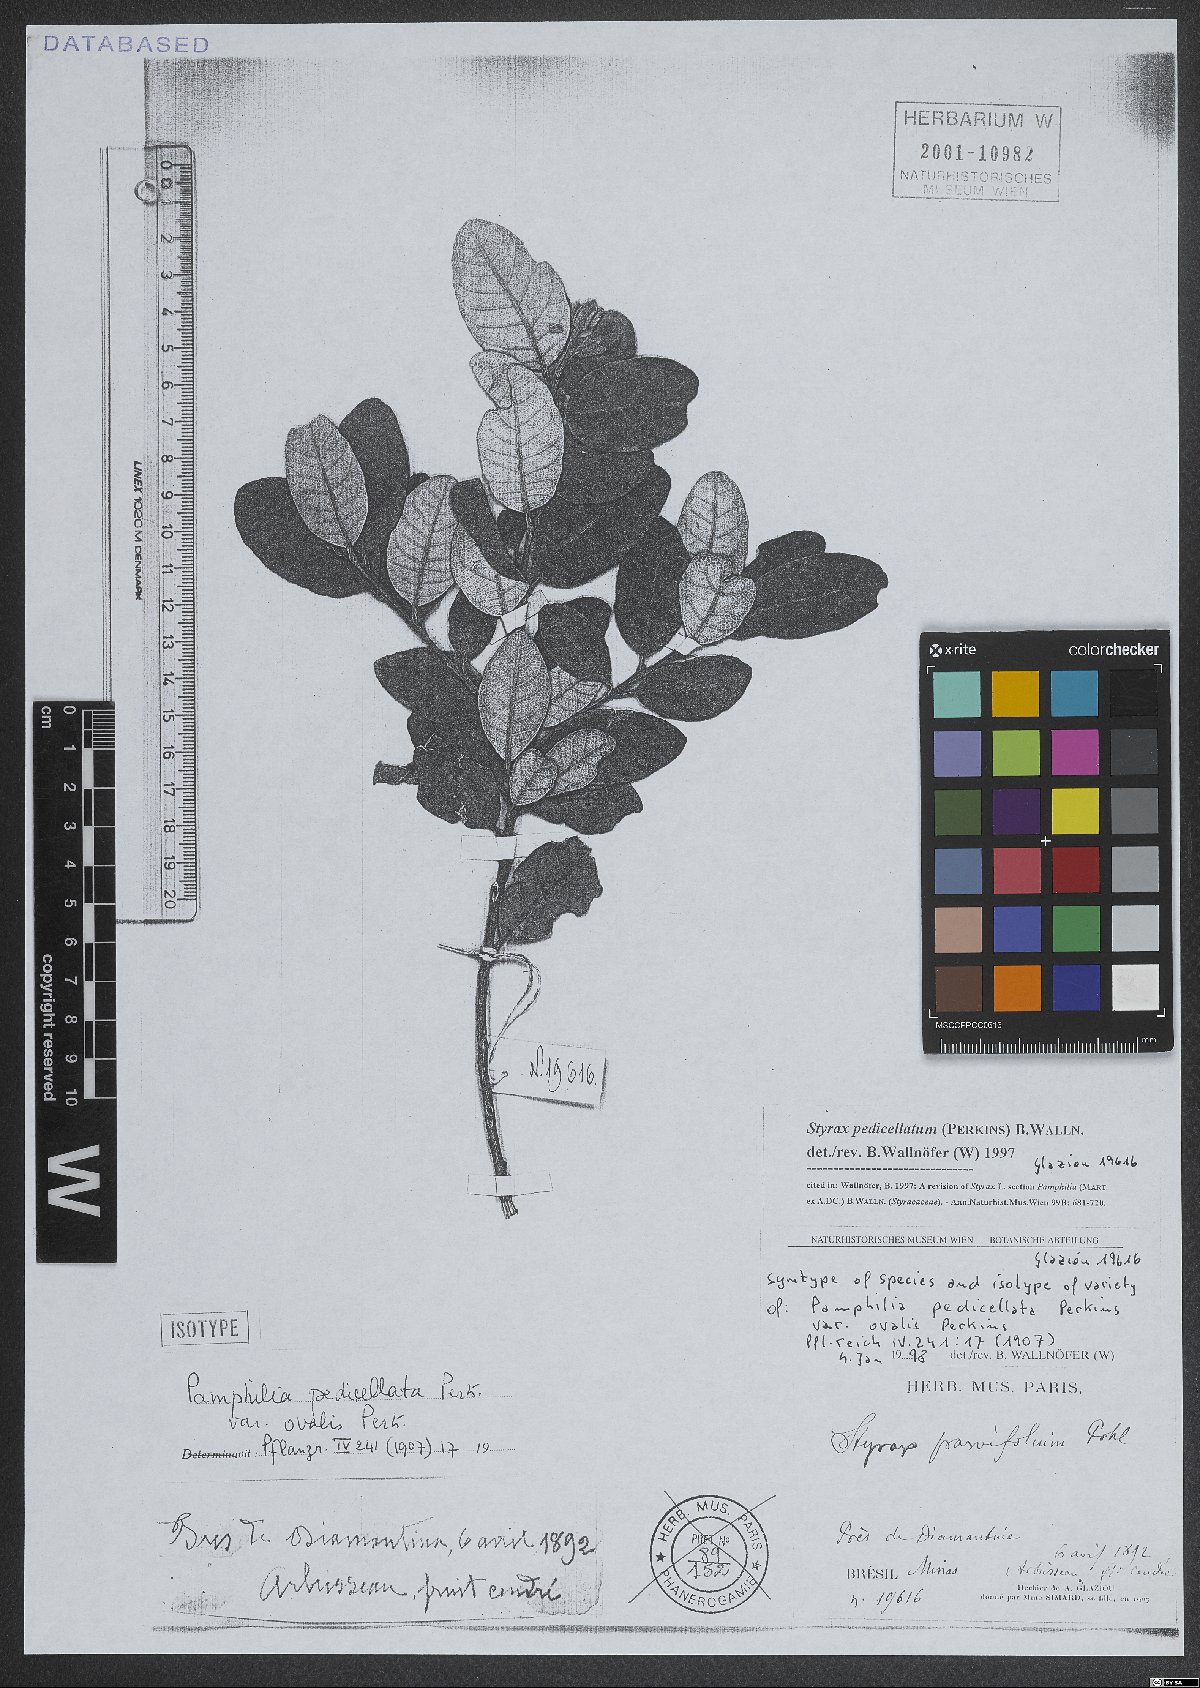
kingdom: Plantae
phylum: Tracheophyta
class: Magnoliopsida
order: Ericales
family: Styracaceae
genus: Styrax
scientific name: Styrax pedicellatus
